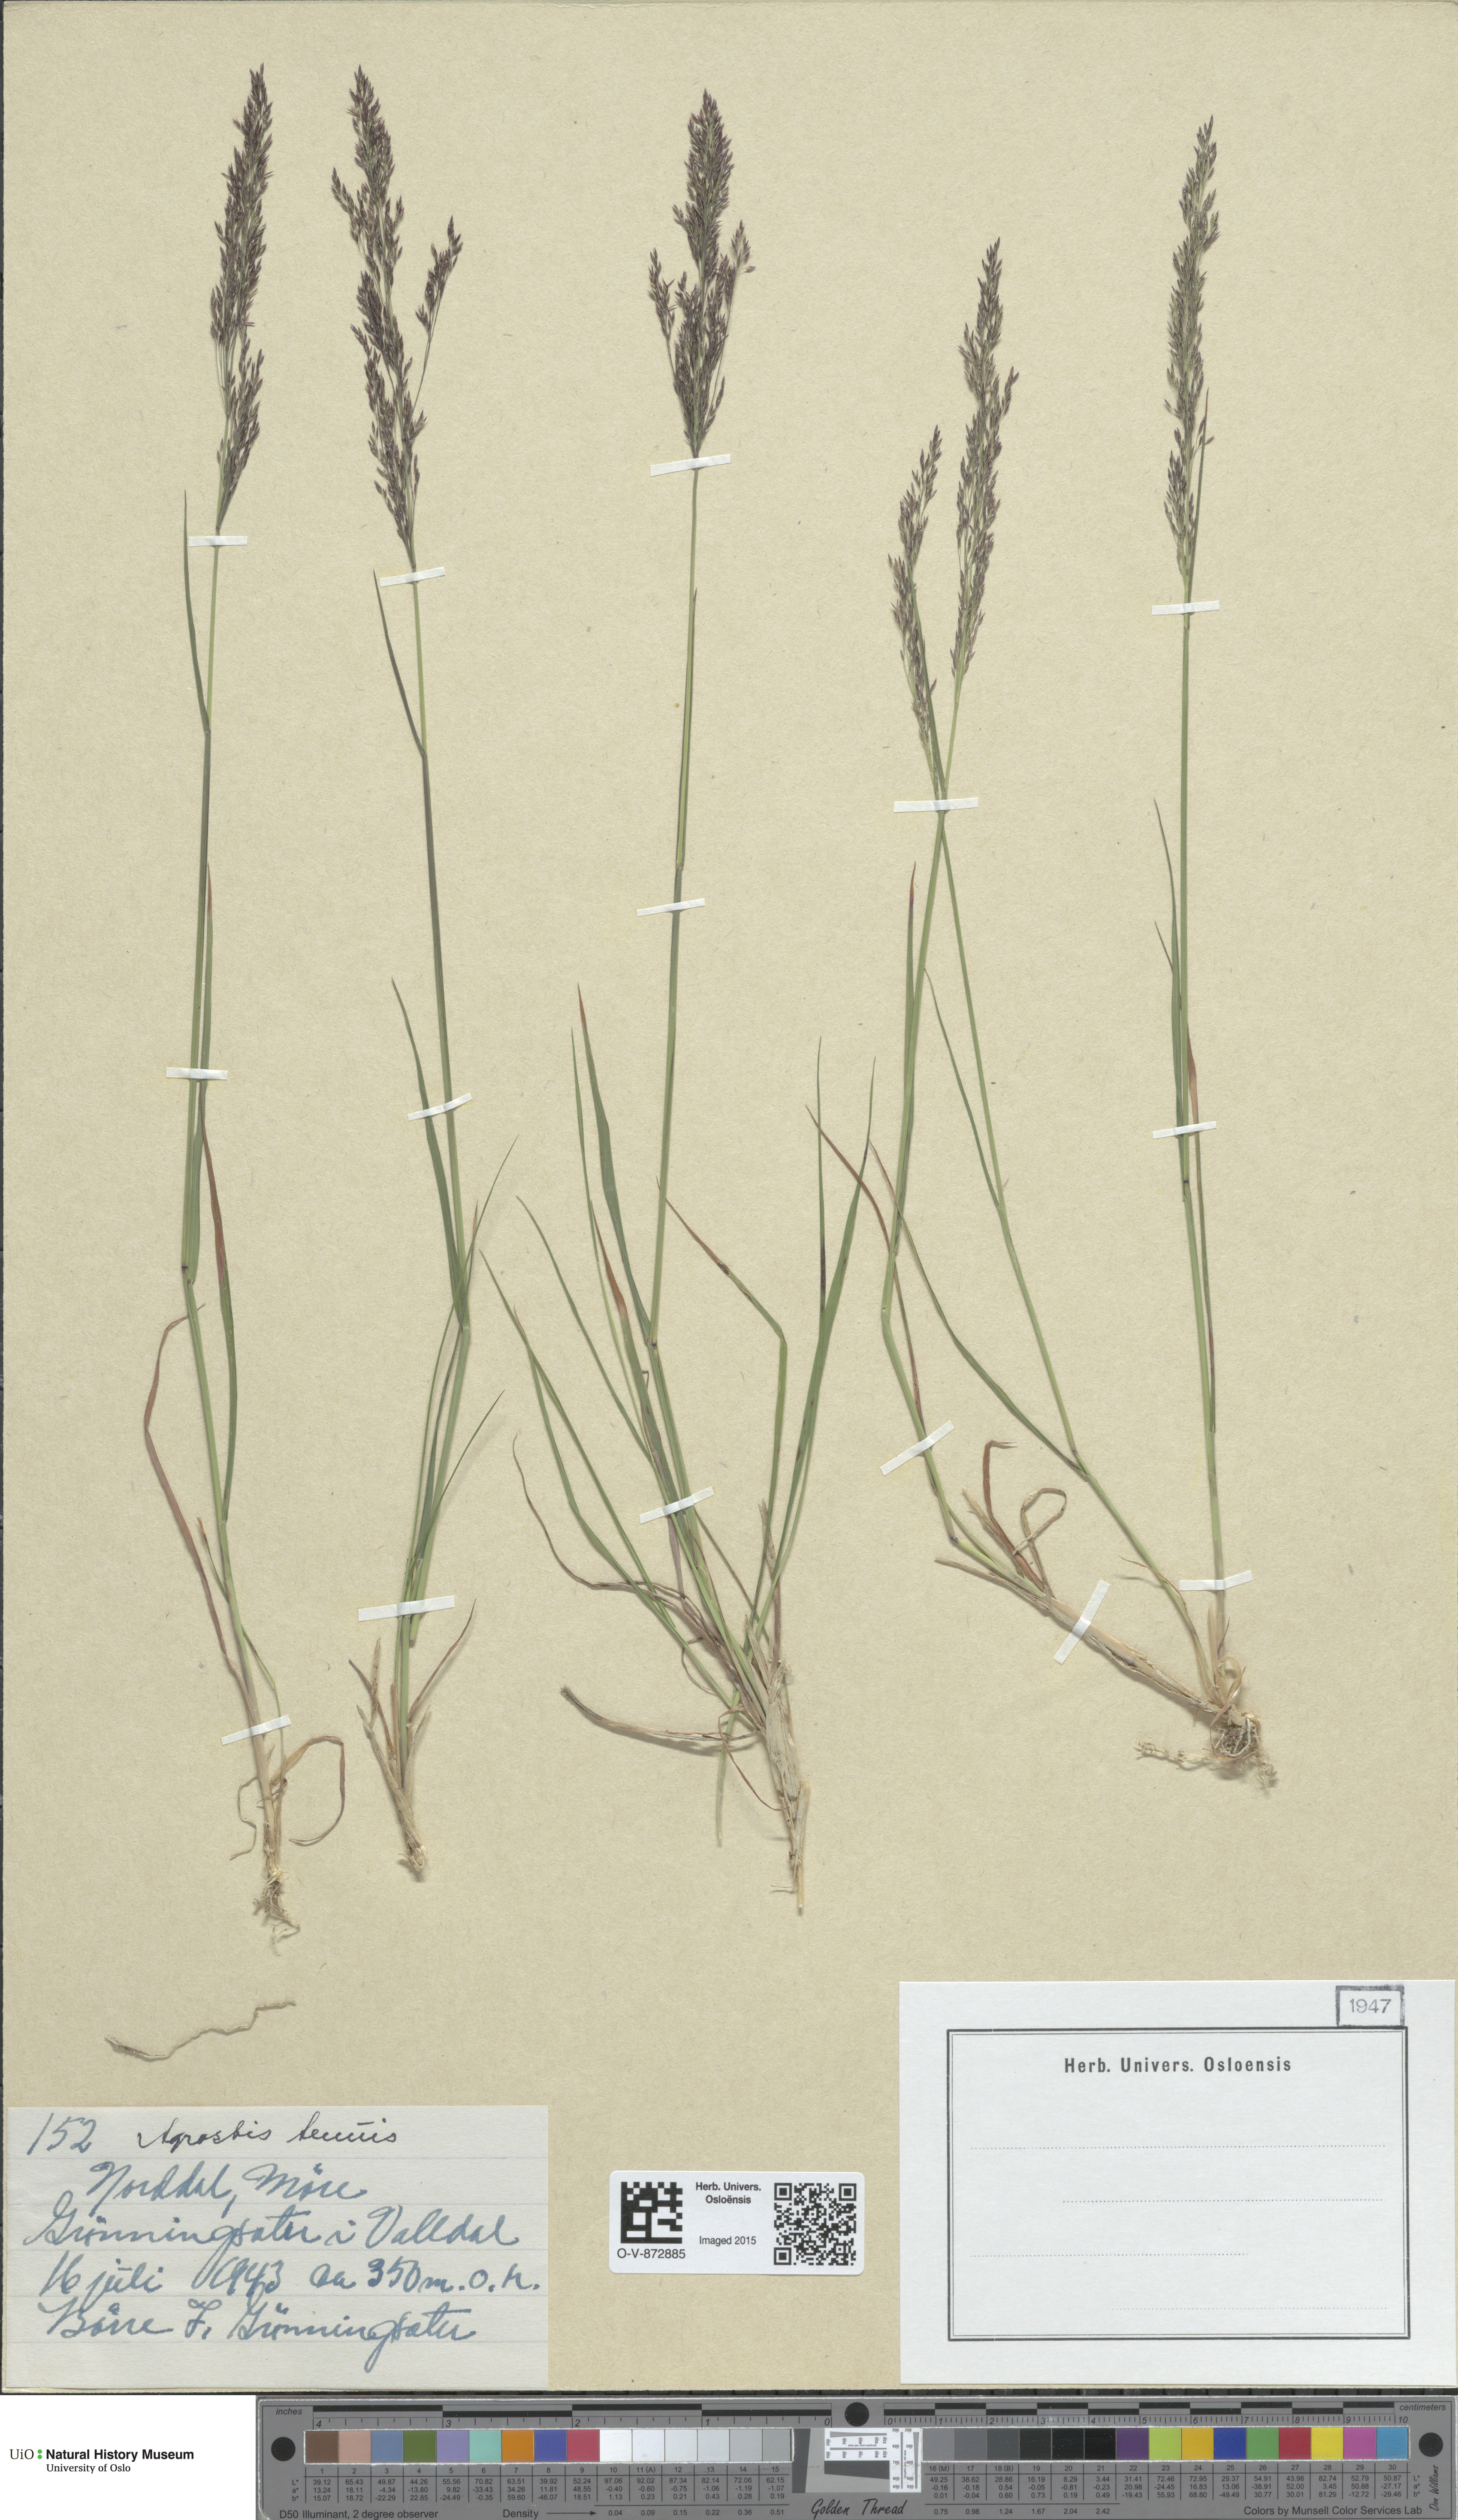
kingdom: Plantae
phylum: Tracheophyta
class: Liliopsida
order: Poales
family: Poaceae
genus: Agrostis
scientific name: Agrostis capillaris
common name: Colonial bentgrass
